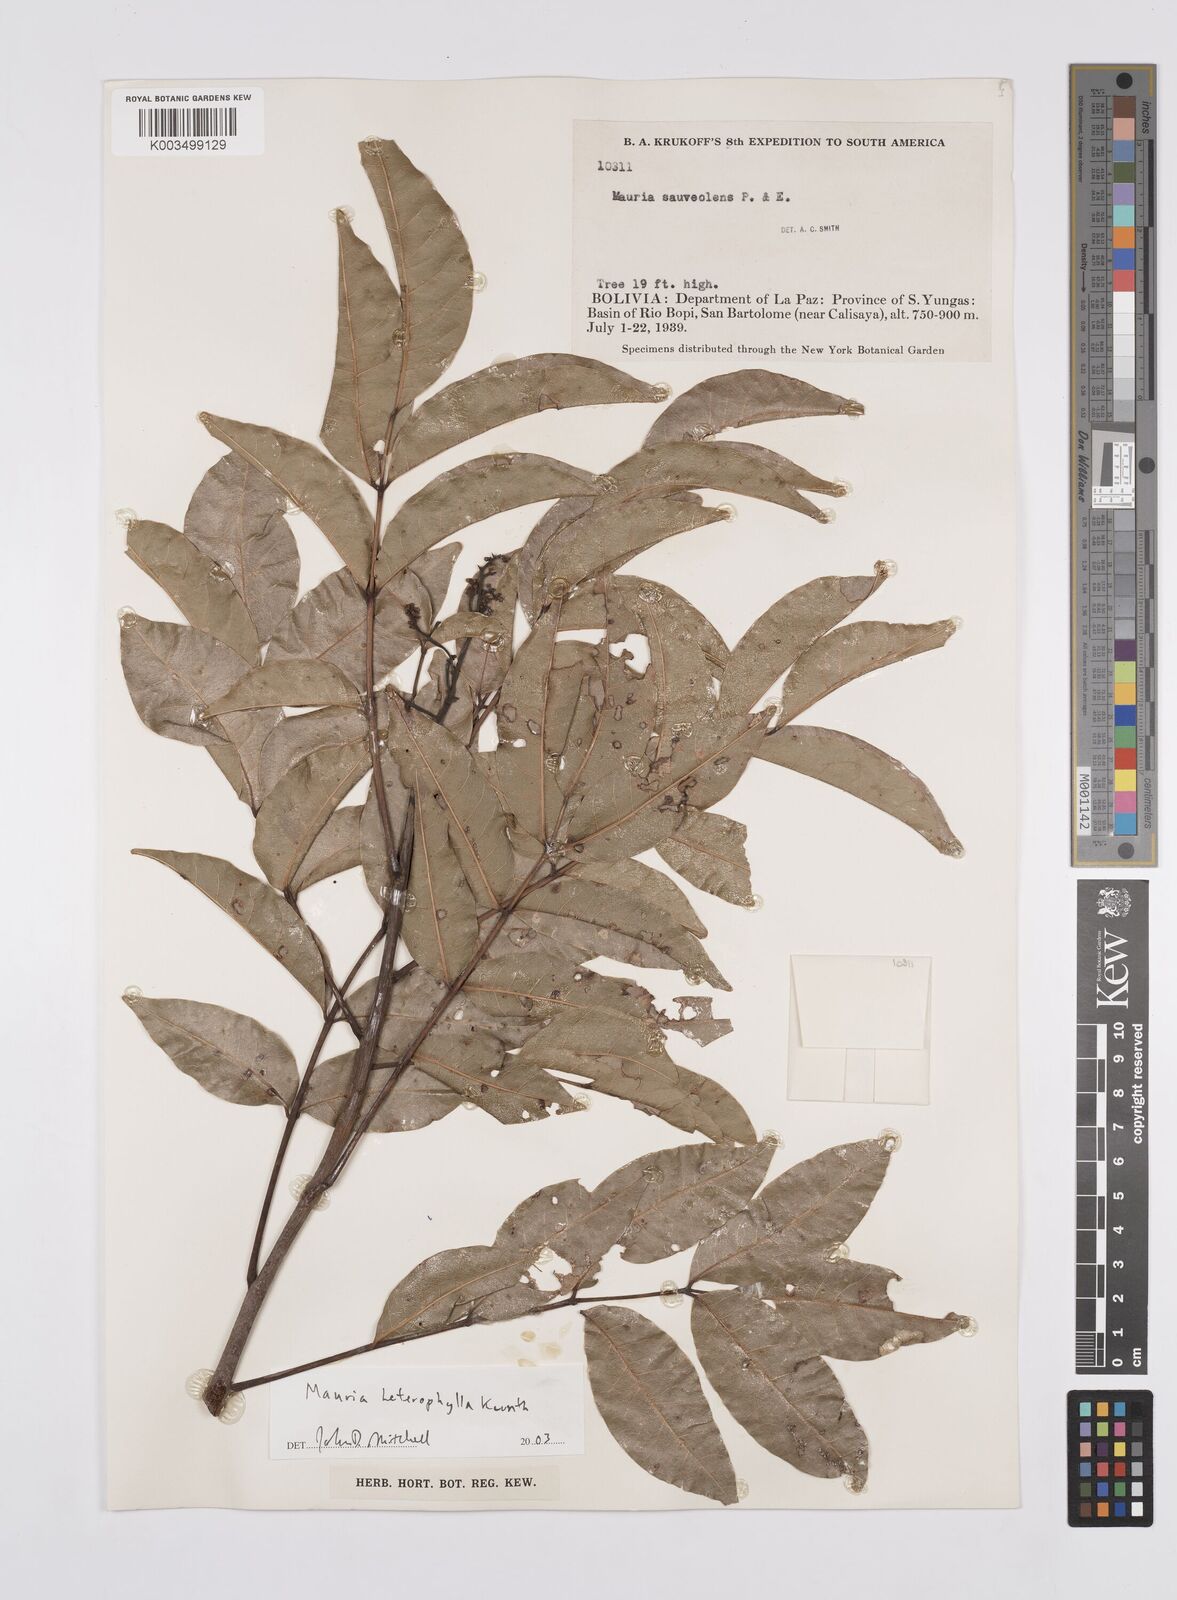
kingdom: Plantae
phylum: Tracheophyta
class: Magnoliopsida
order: Sapindales
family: Anacardiaceae
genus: Mauria
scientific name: Mauria heterophylla
